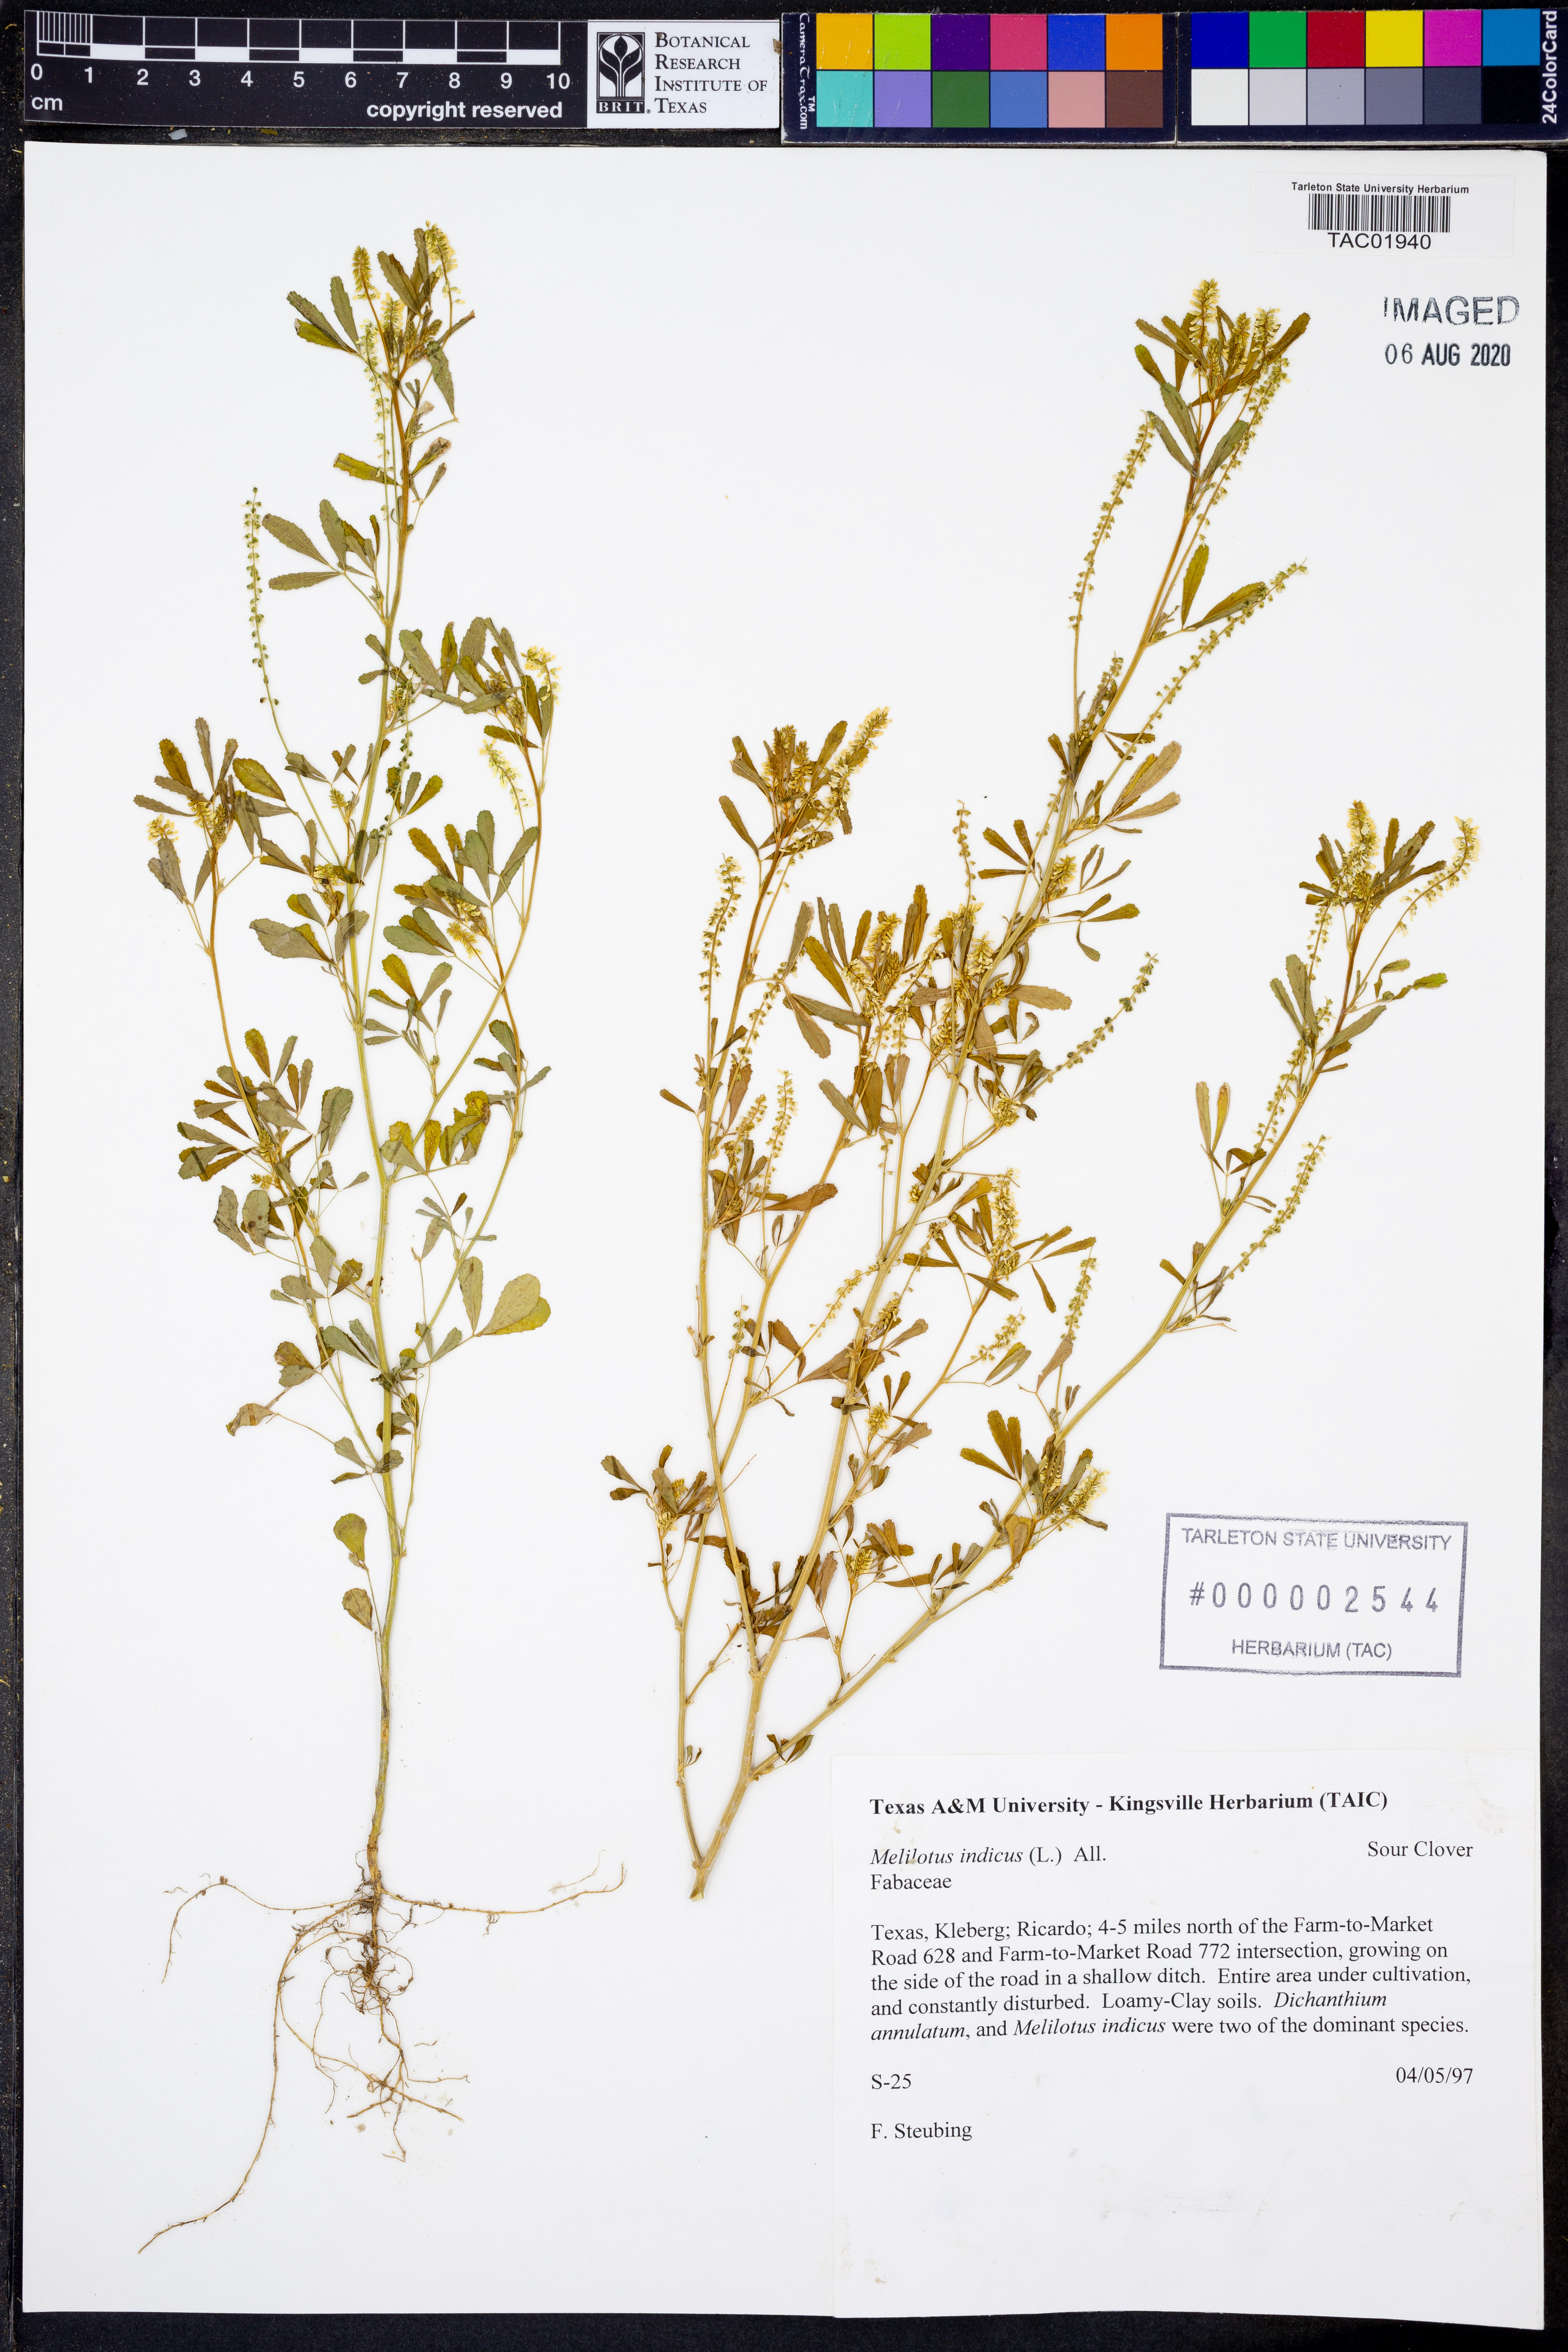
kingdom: Plantae
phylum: Tracheophyta
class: Magnoliopsida
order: Fabales
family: Fabaceae
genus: Melilotus
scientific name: Melilotus indicus
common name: Small melilot
